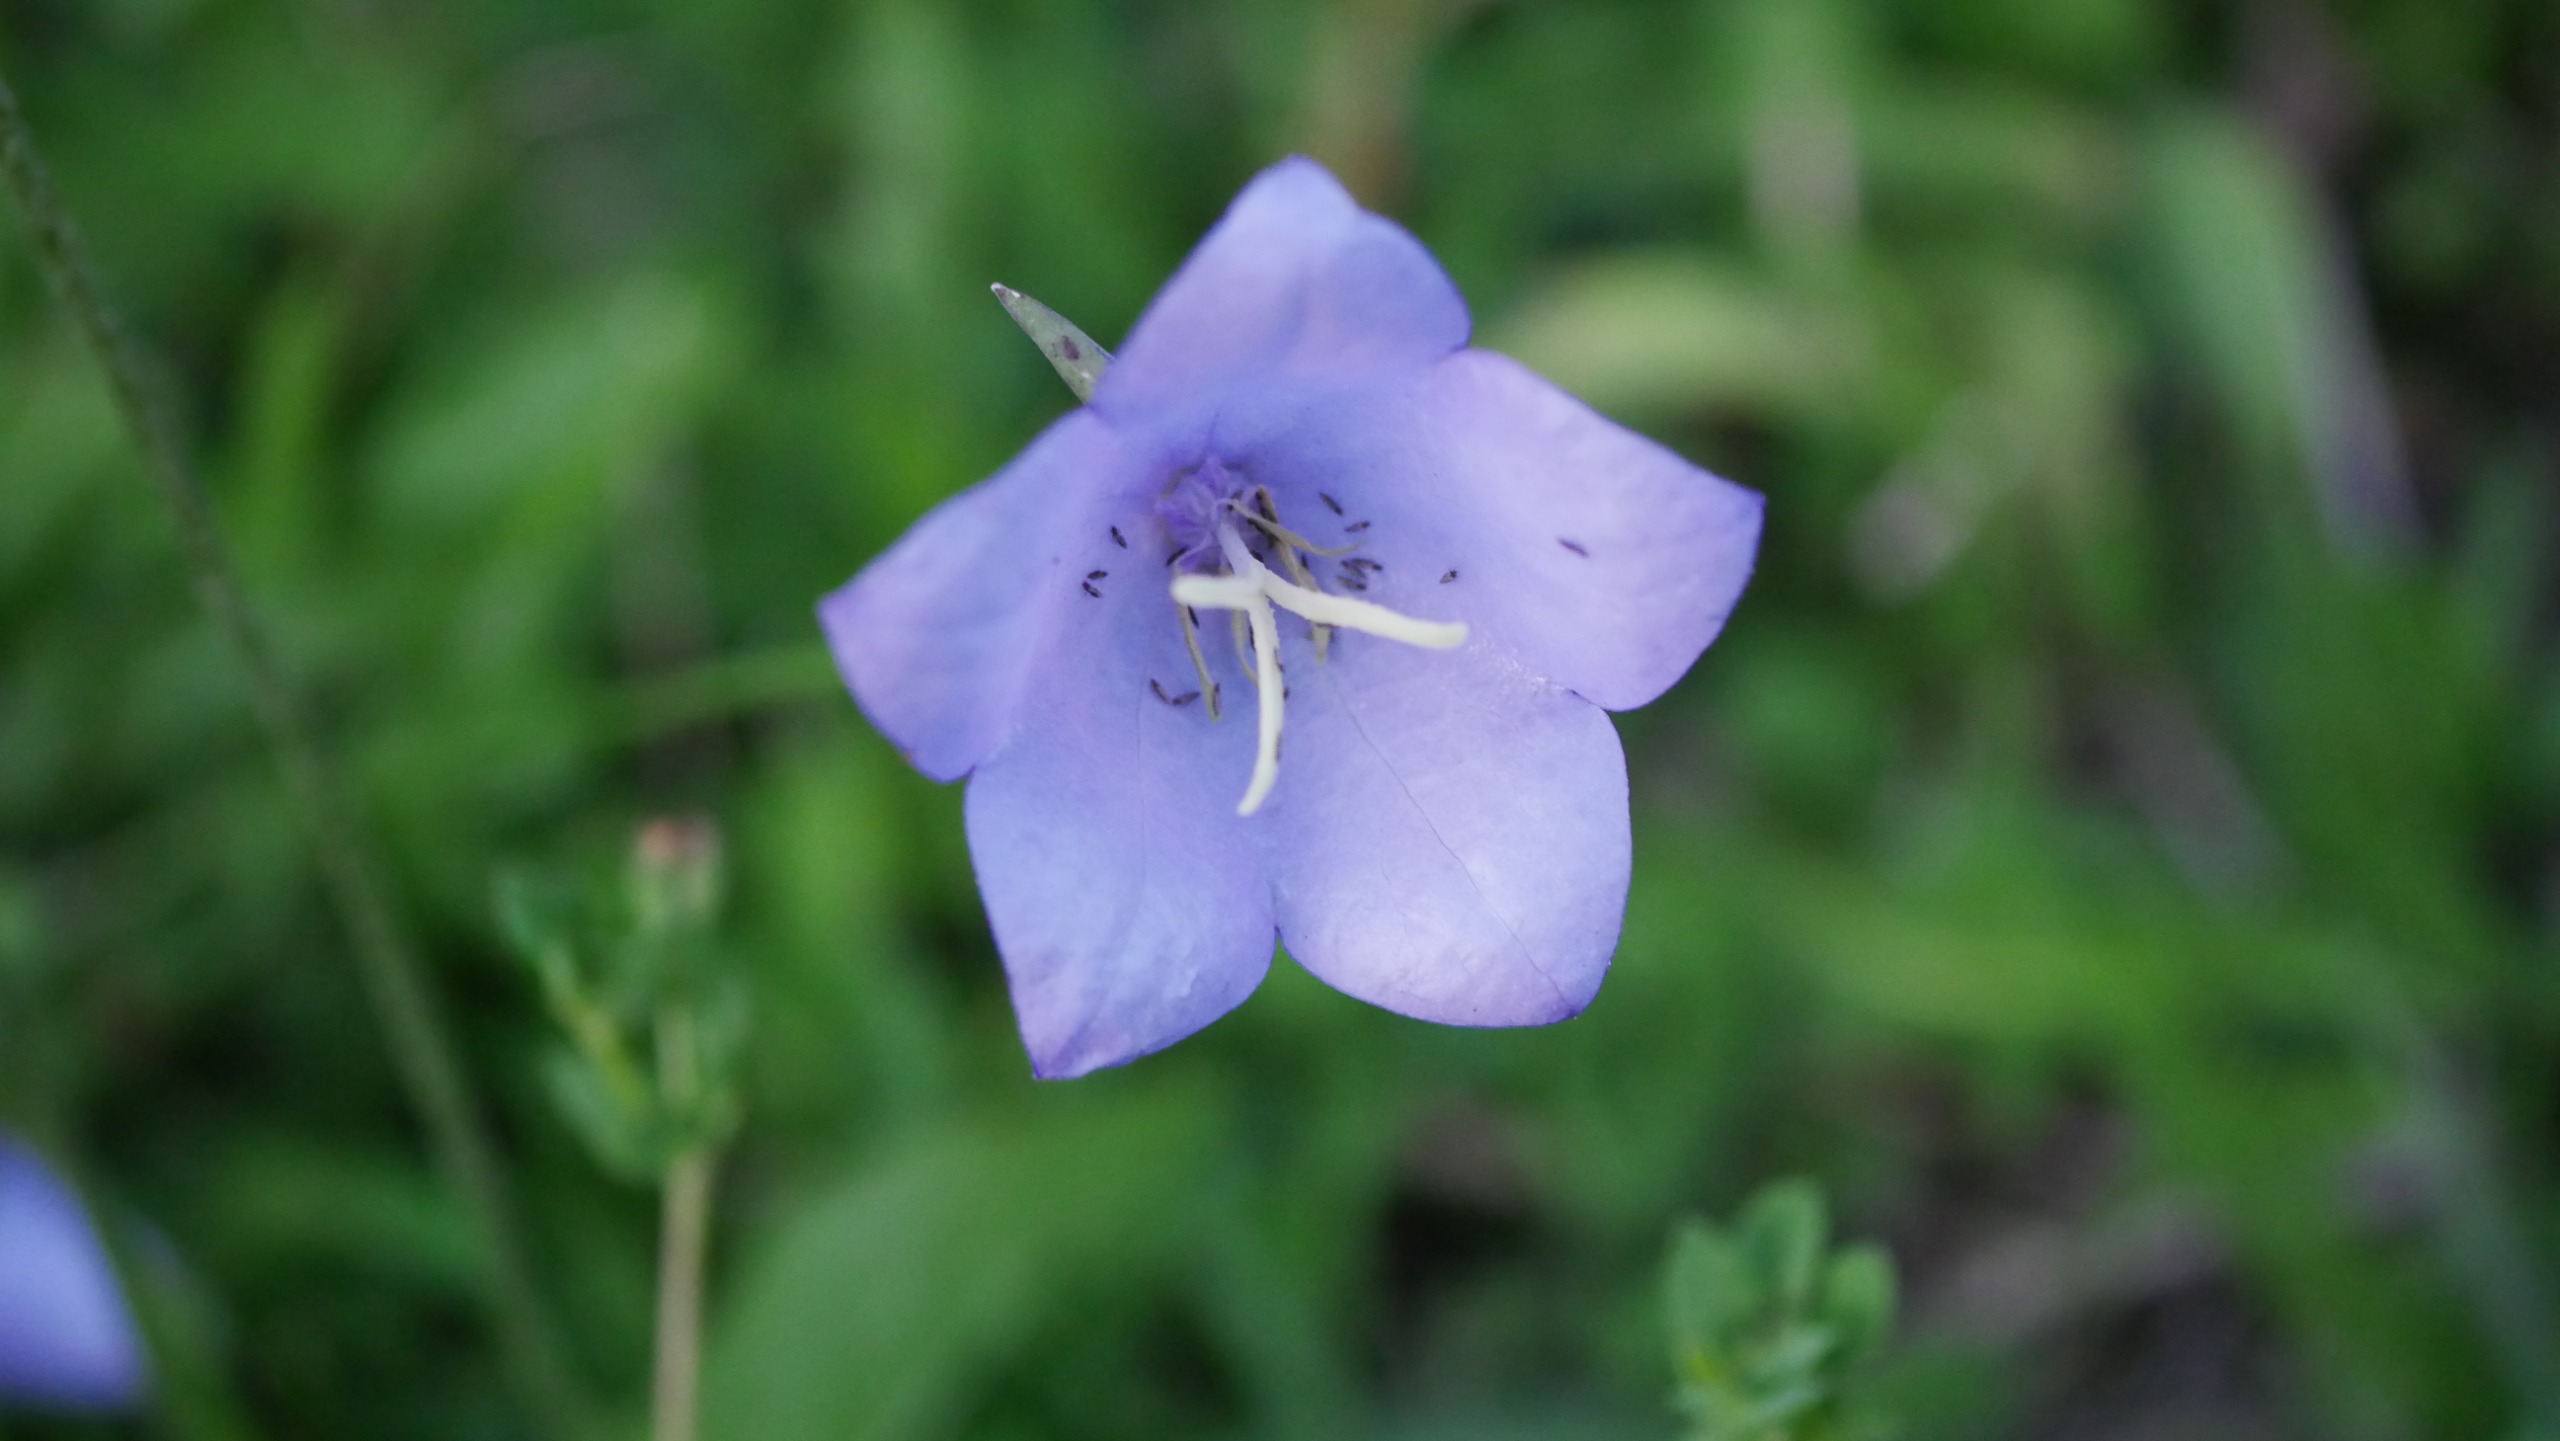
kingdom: Plantae
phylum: Tracheophyta
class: Magnoliopsida
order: Asterales
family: Campanulaceae
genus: Campanula
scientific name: Campanula rotundifolia
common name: Liden klokke
